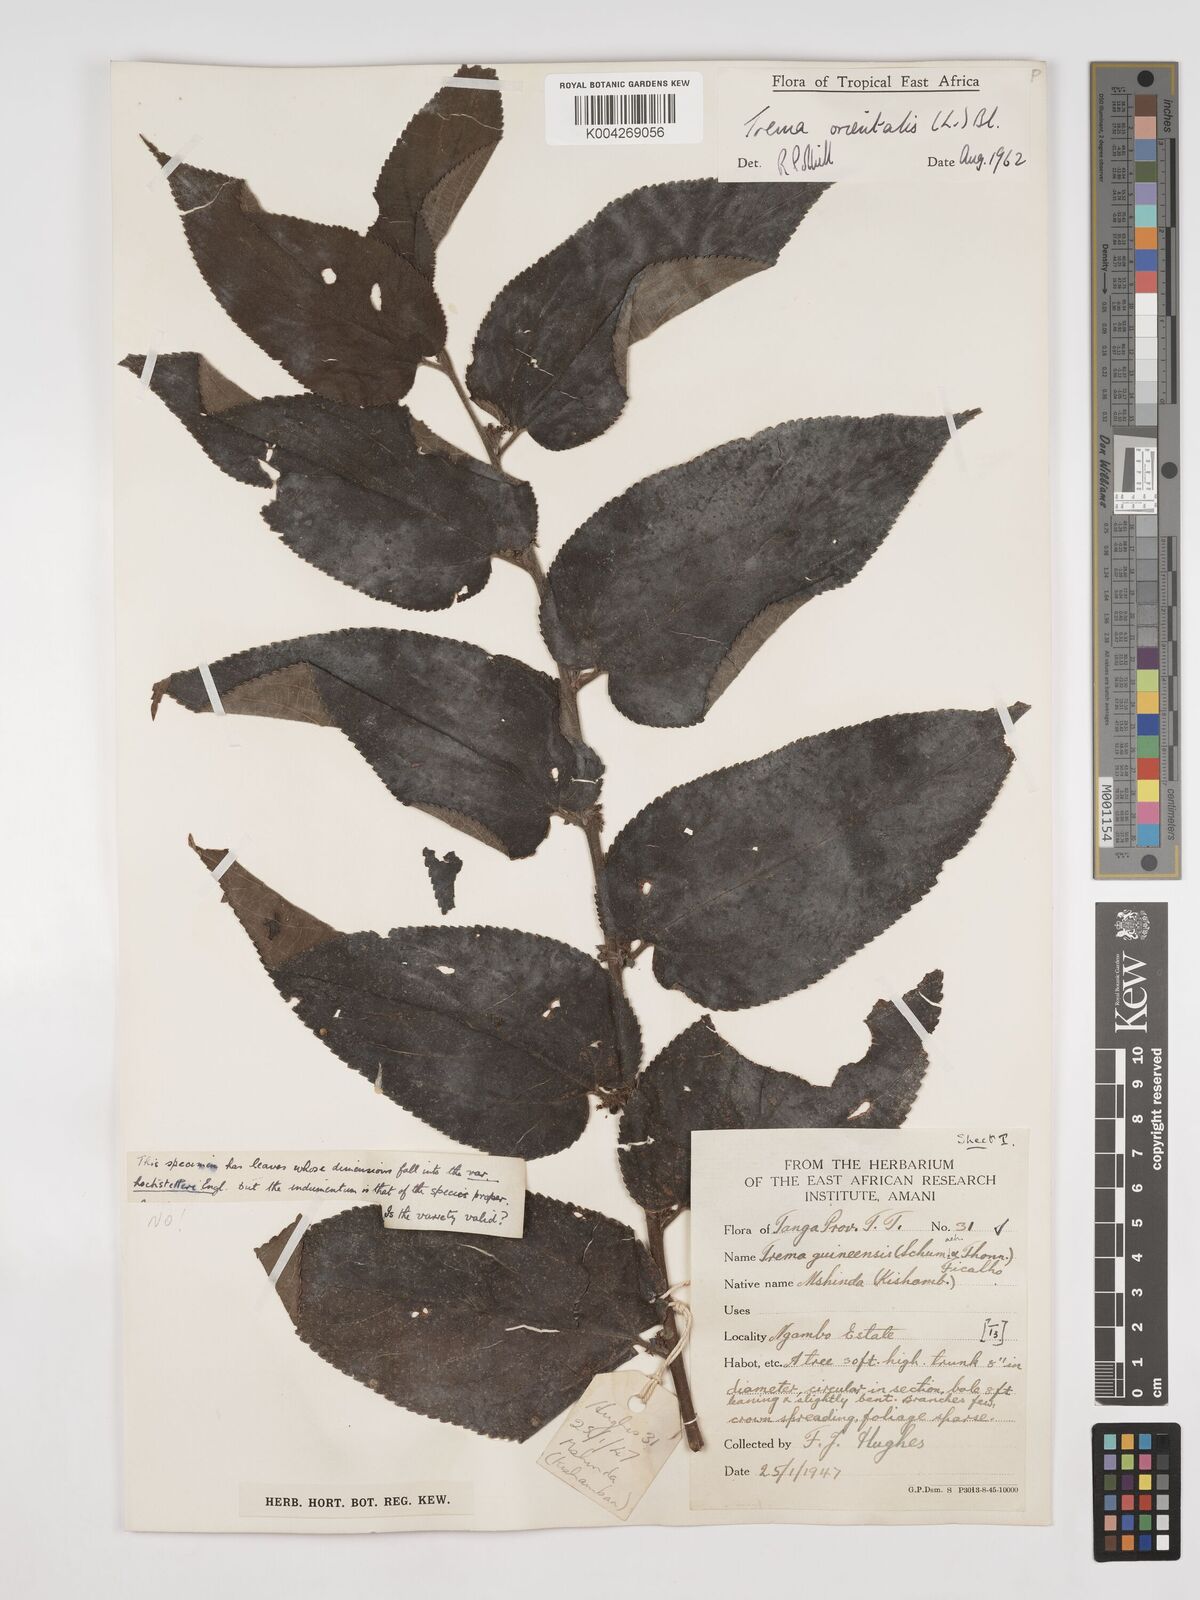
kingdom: Plantae
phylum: Tracheophyta
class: Magnoliopsida
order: Rosales
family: Cannabaceae
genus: Trema
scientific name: Trema orientale
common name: Indian charcoal tree
